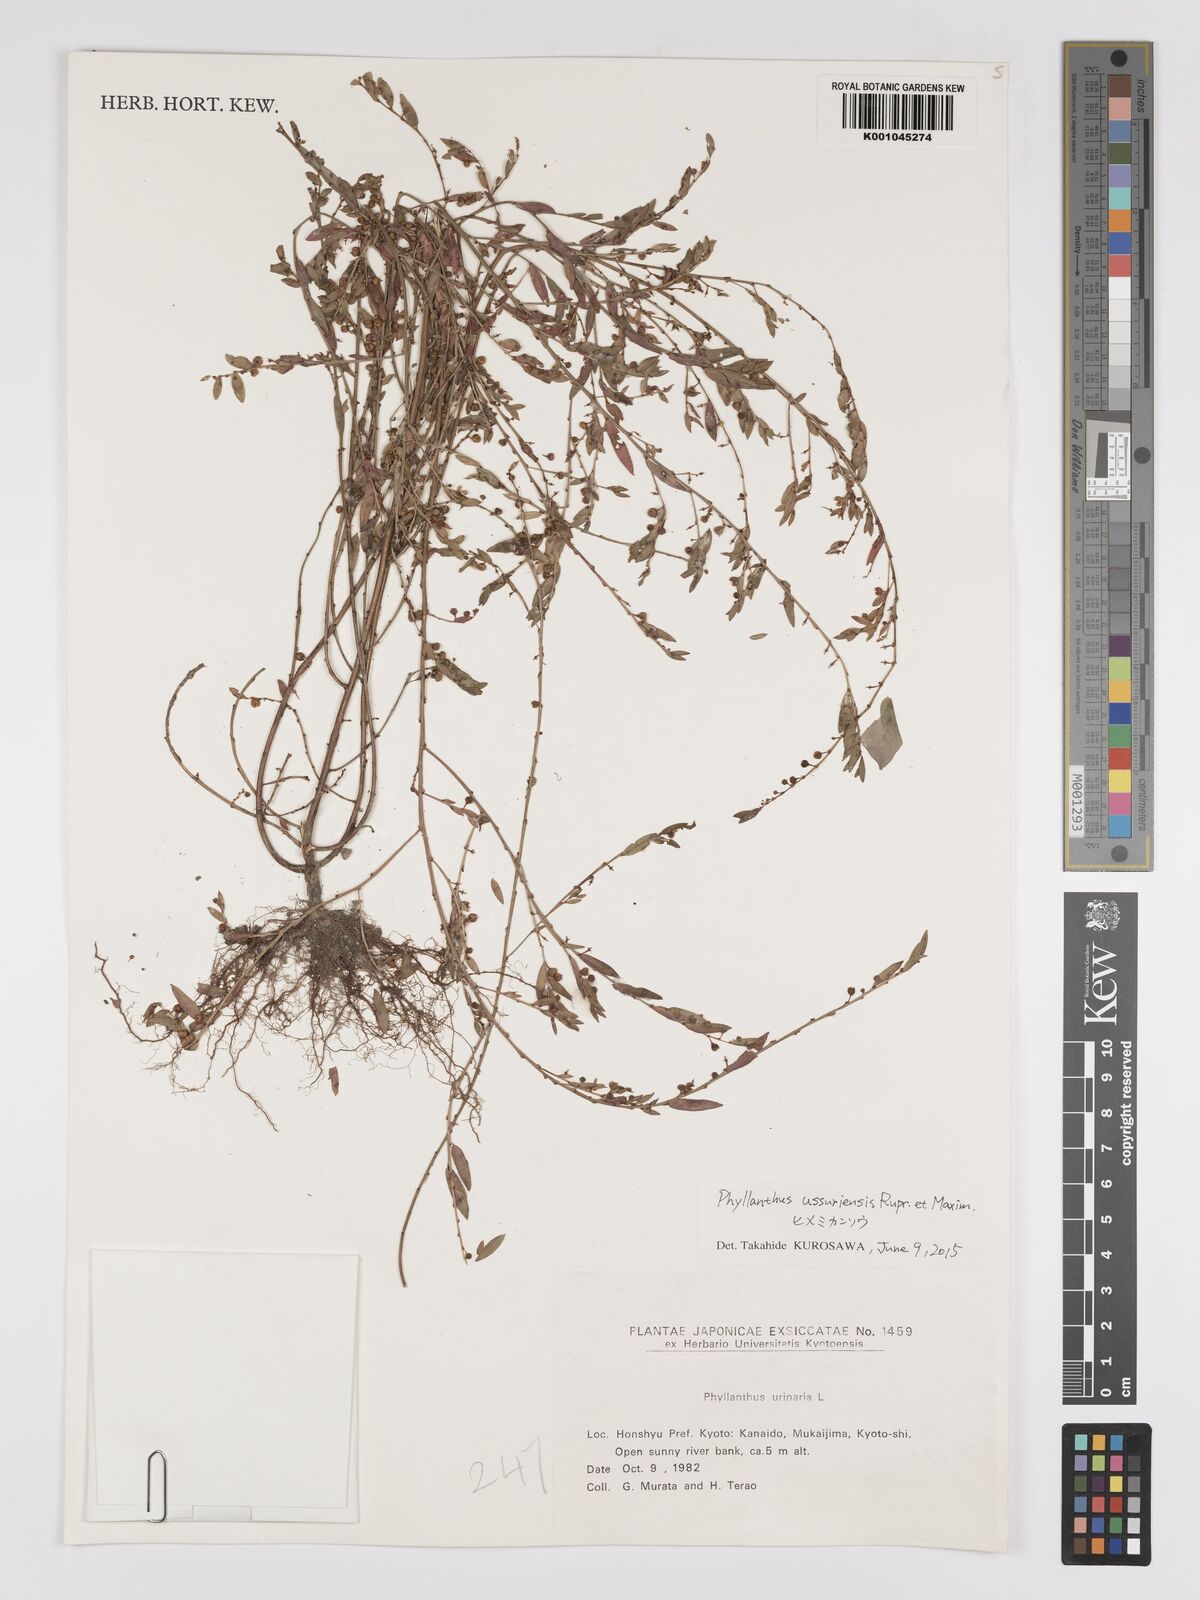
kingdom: Plantae
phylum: Tracheophyta
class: Magnoliopsida
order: Malpighiales
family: Phyllanthaceae
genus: Phyllanthus
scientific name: Phyllanthus ussuriensis
